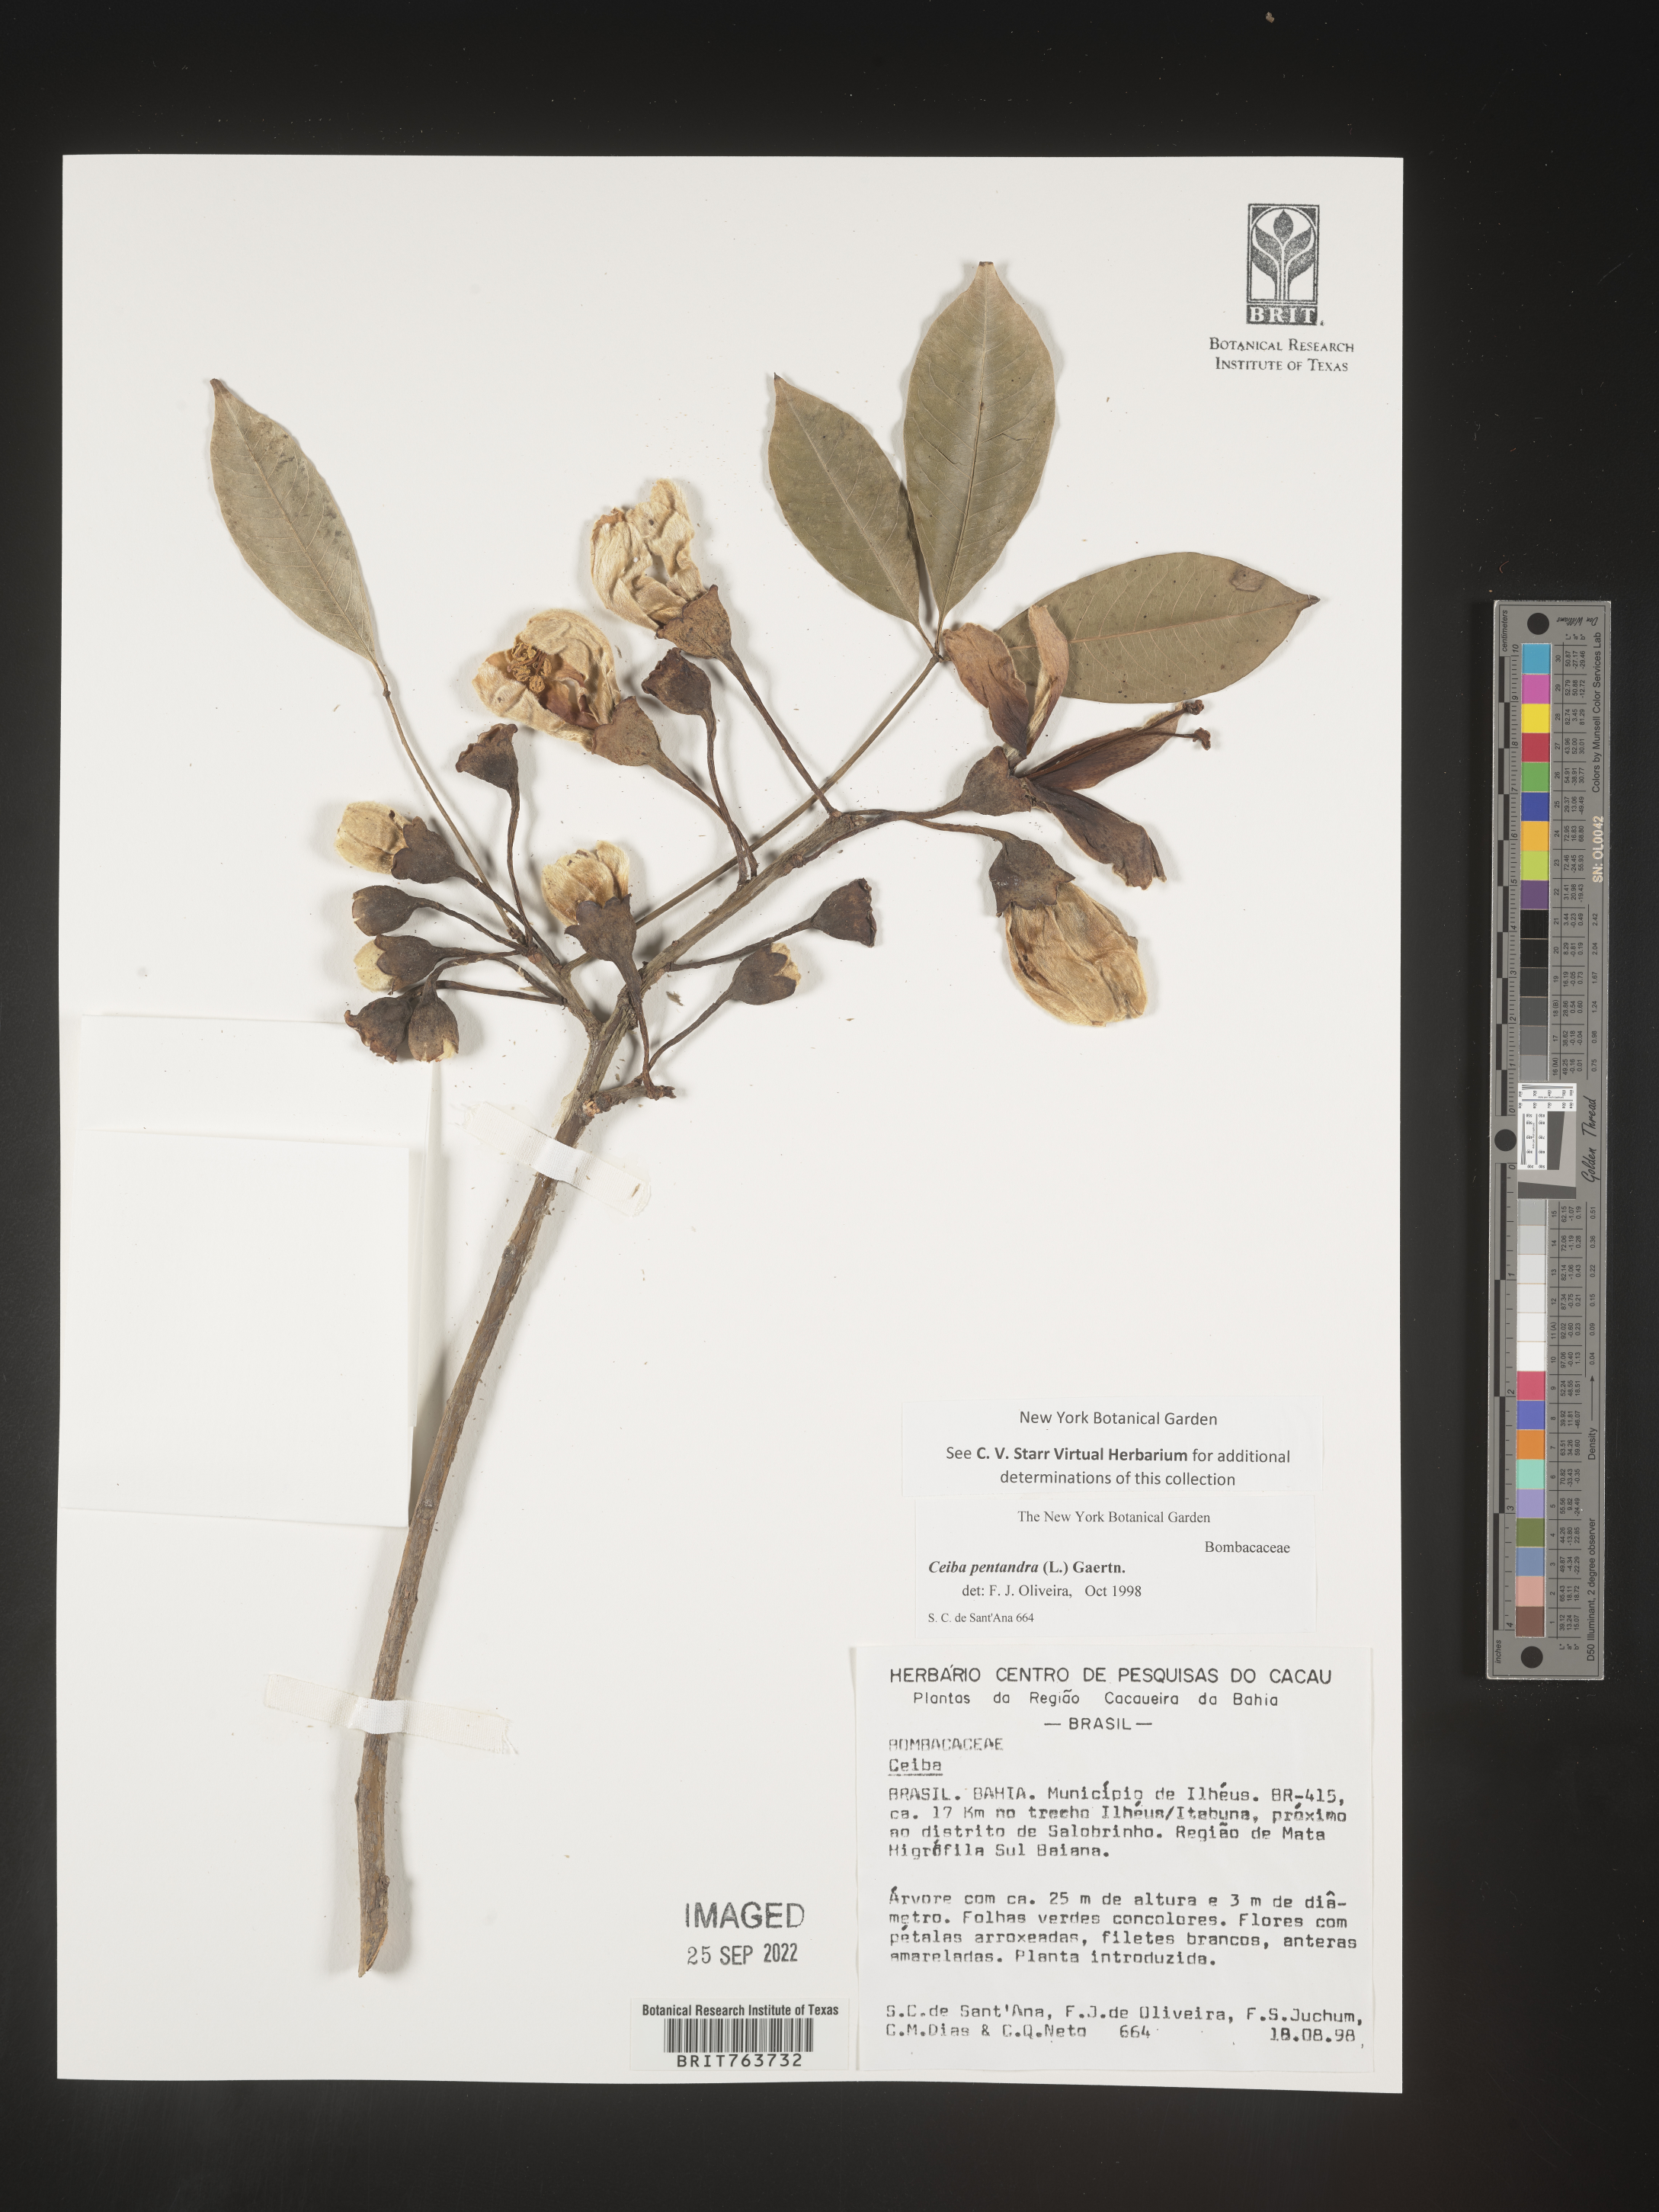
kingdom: Plantae
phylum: Tracheophyta
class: Magnoliopsida
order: Malvales
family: Malvaceae
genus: Ceiba
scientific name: Ceiba
